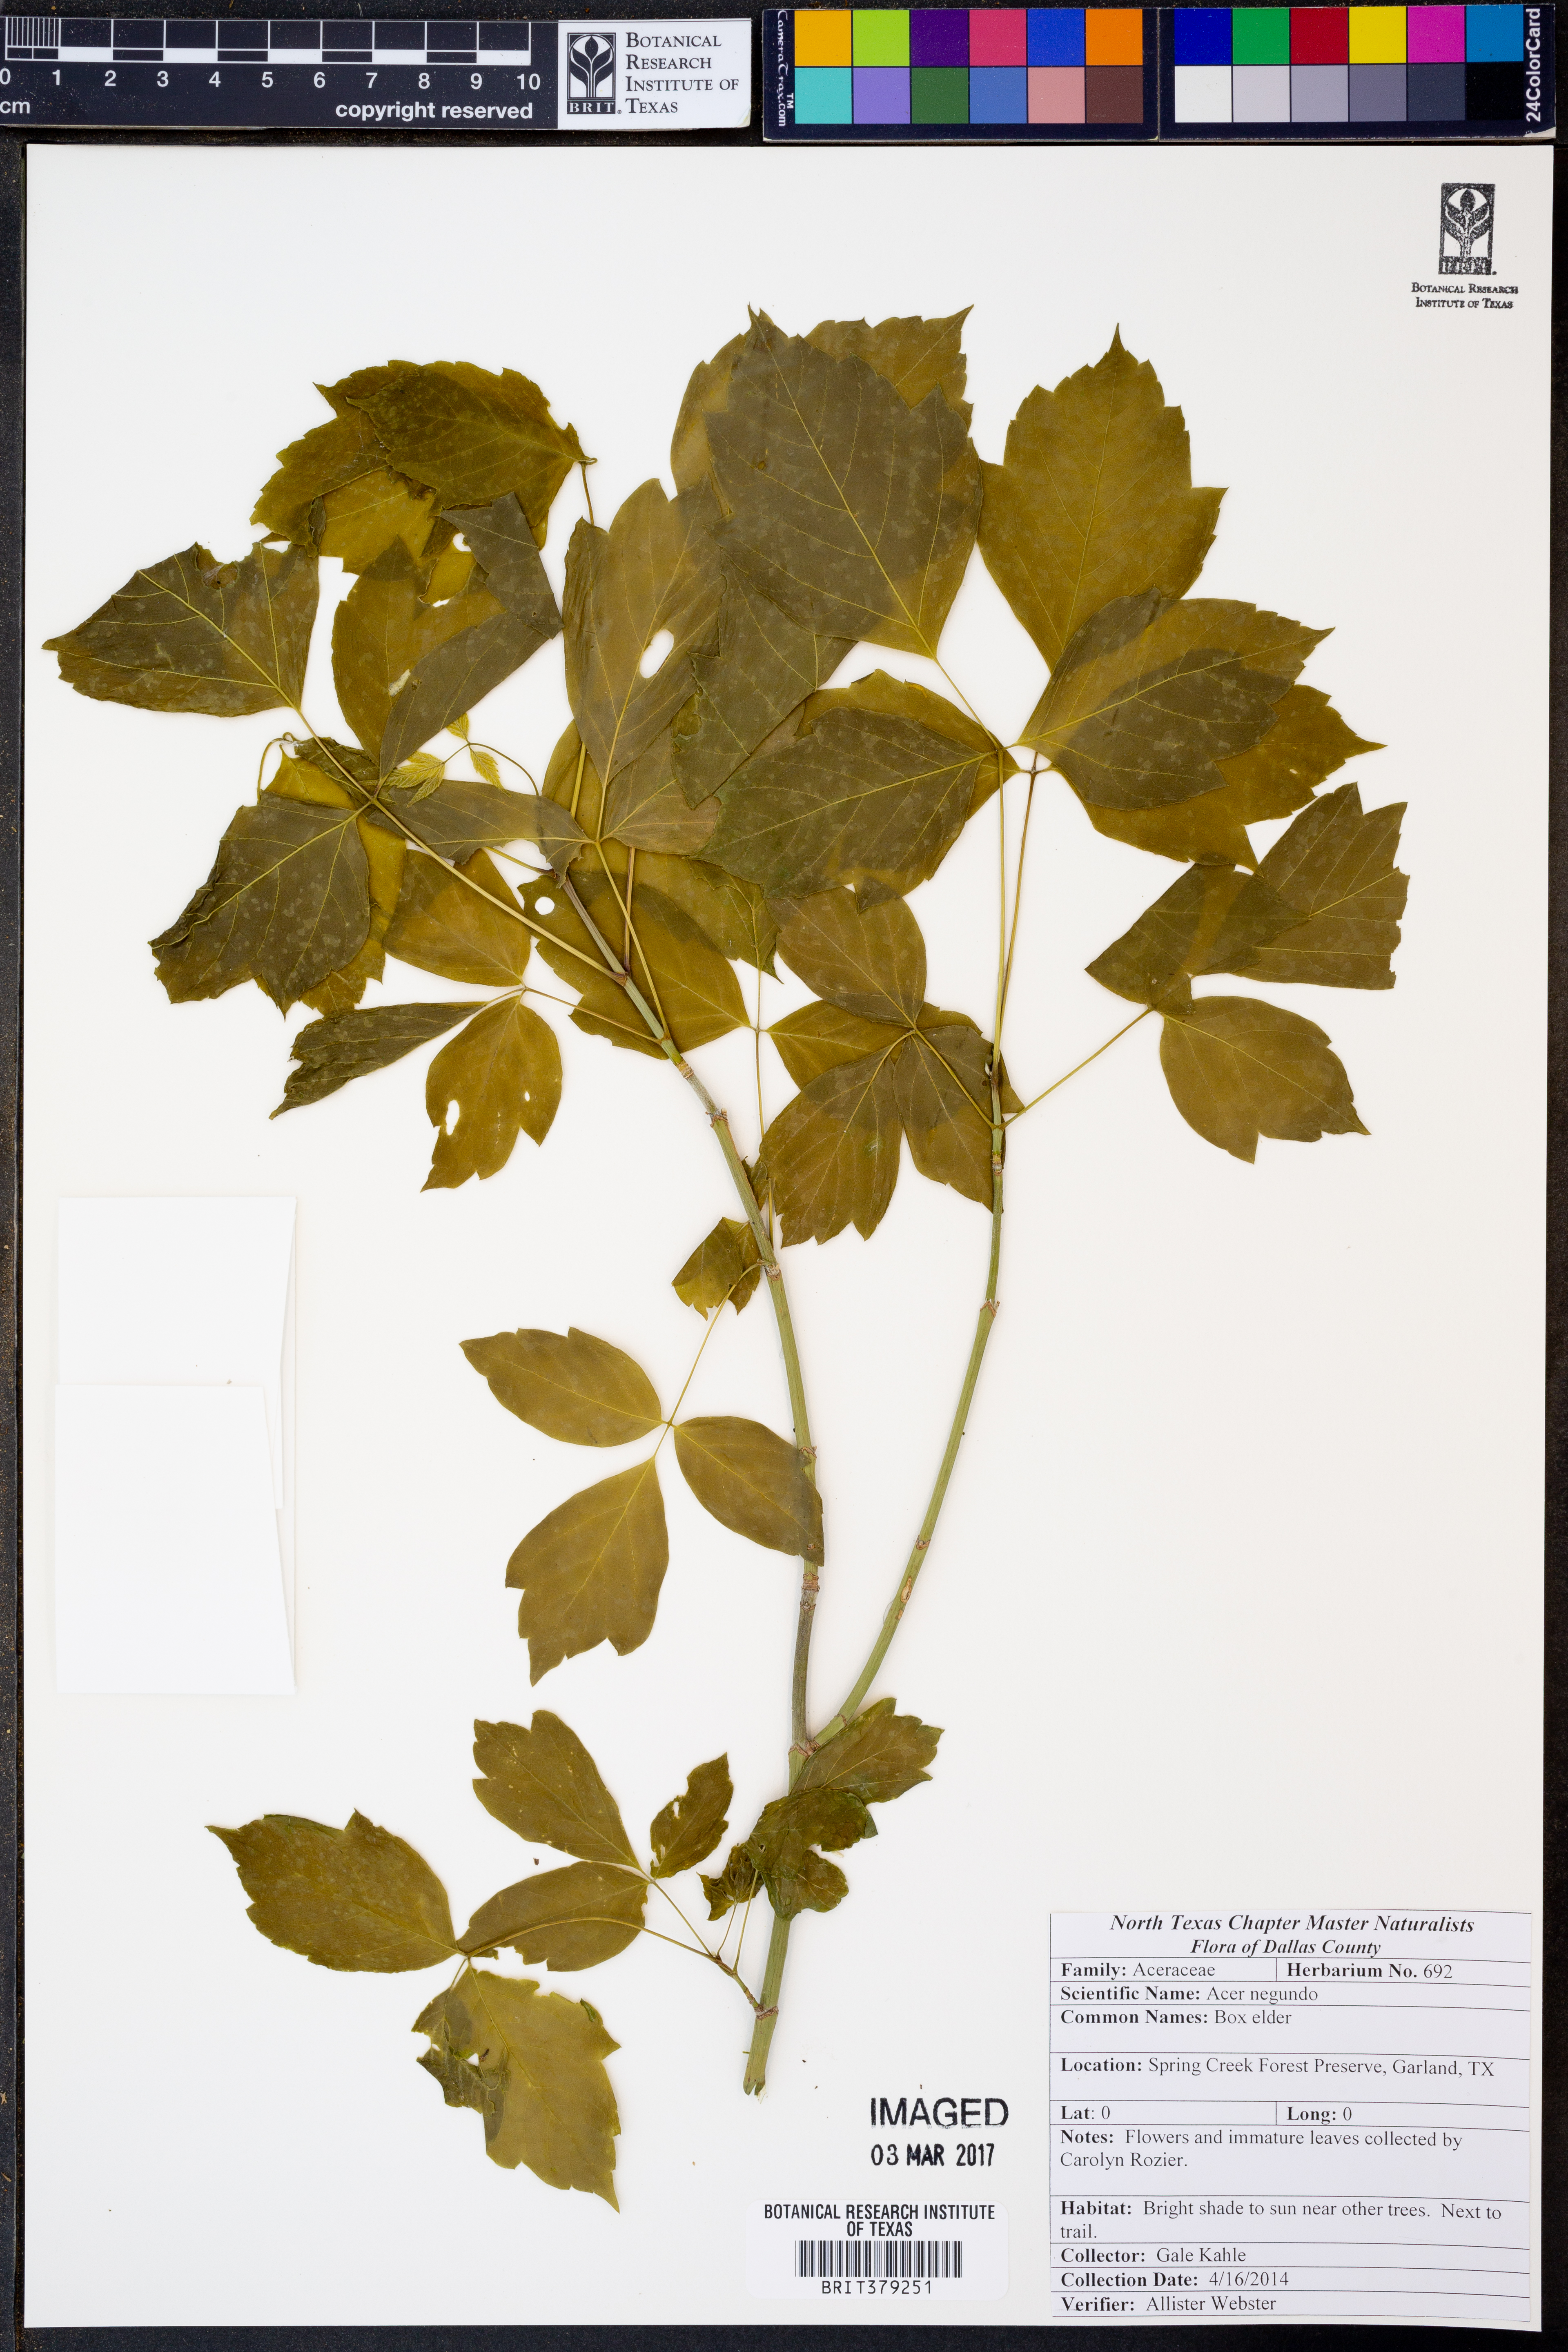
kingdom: Plantae
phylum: Tracheophyta
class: Magnoliopsida
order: Sapindales
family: Sapindaceae
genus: Acer
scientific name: Acer negundo
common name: Ashleaf maple
